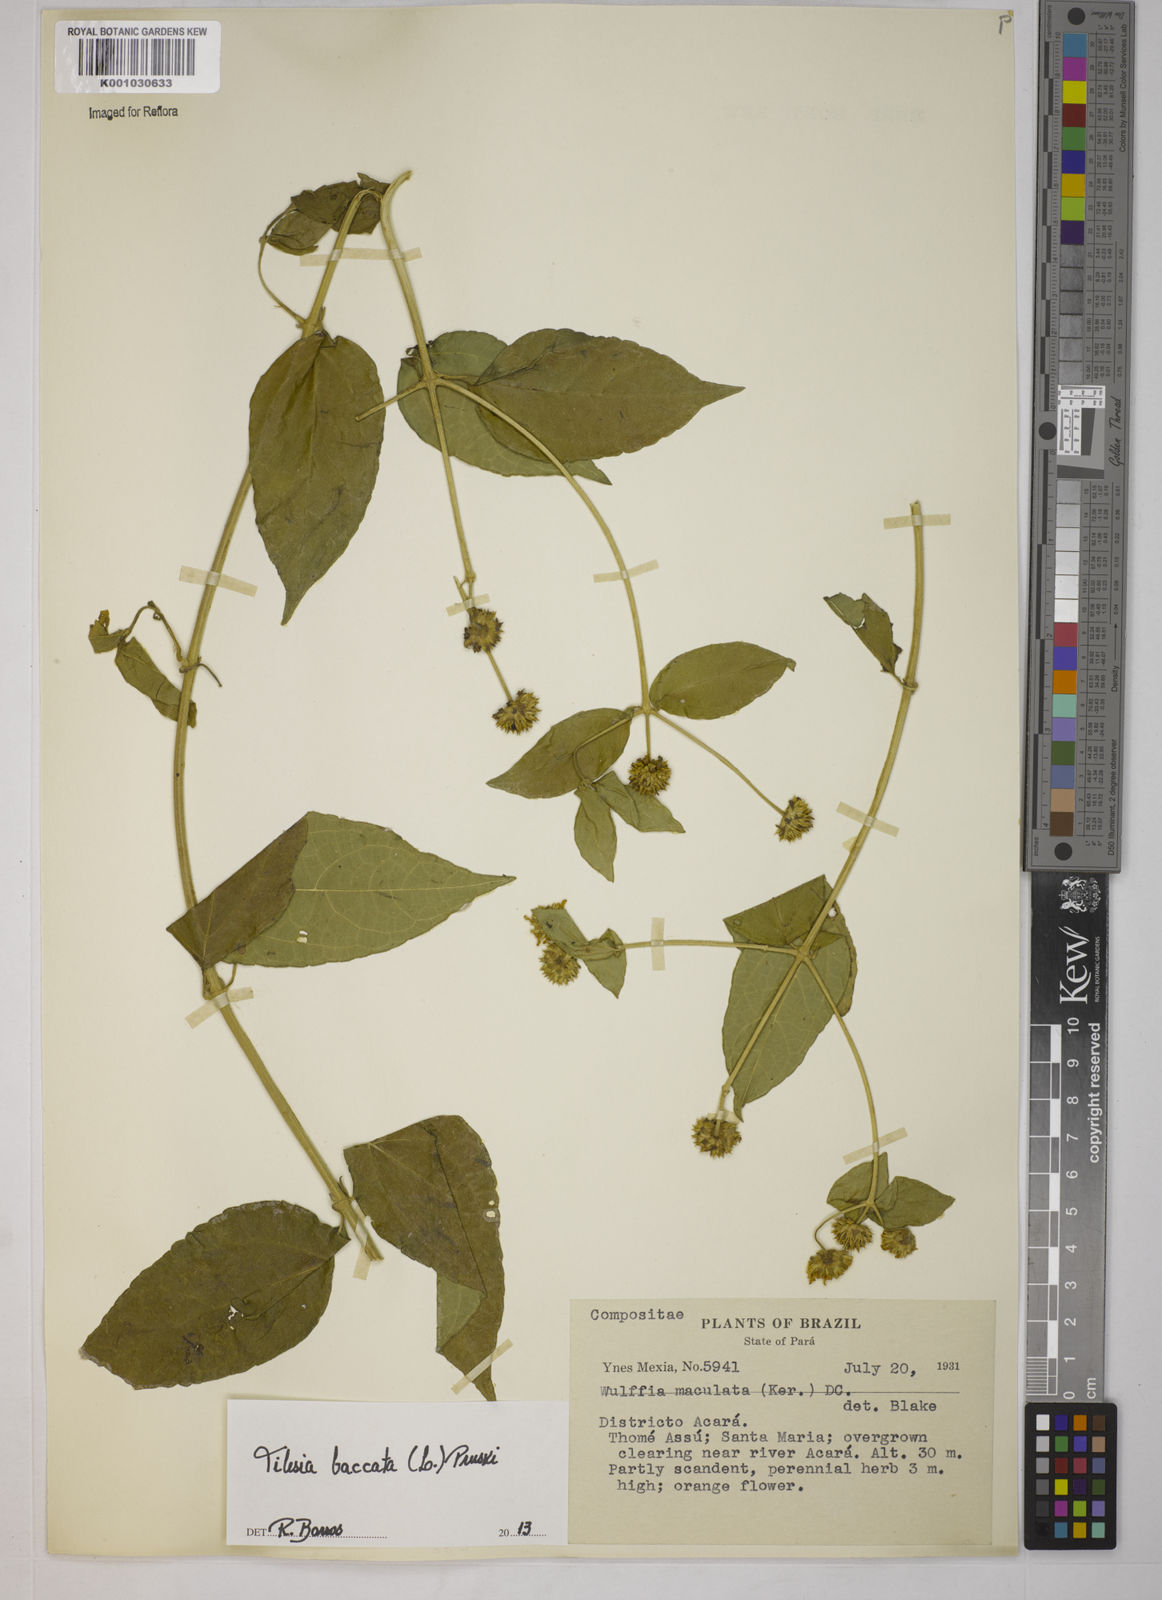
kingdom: Plantae
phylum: Tracheophyta
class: Magnoliopsida
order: Asterales
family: Asteraceae
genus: Tilesia
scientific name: Tilesia baccata
